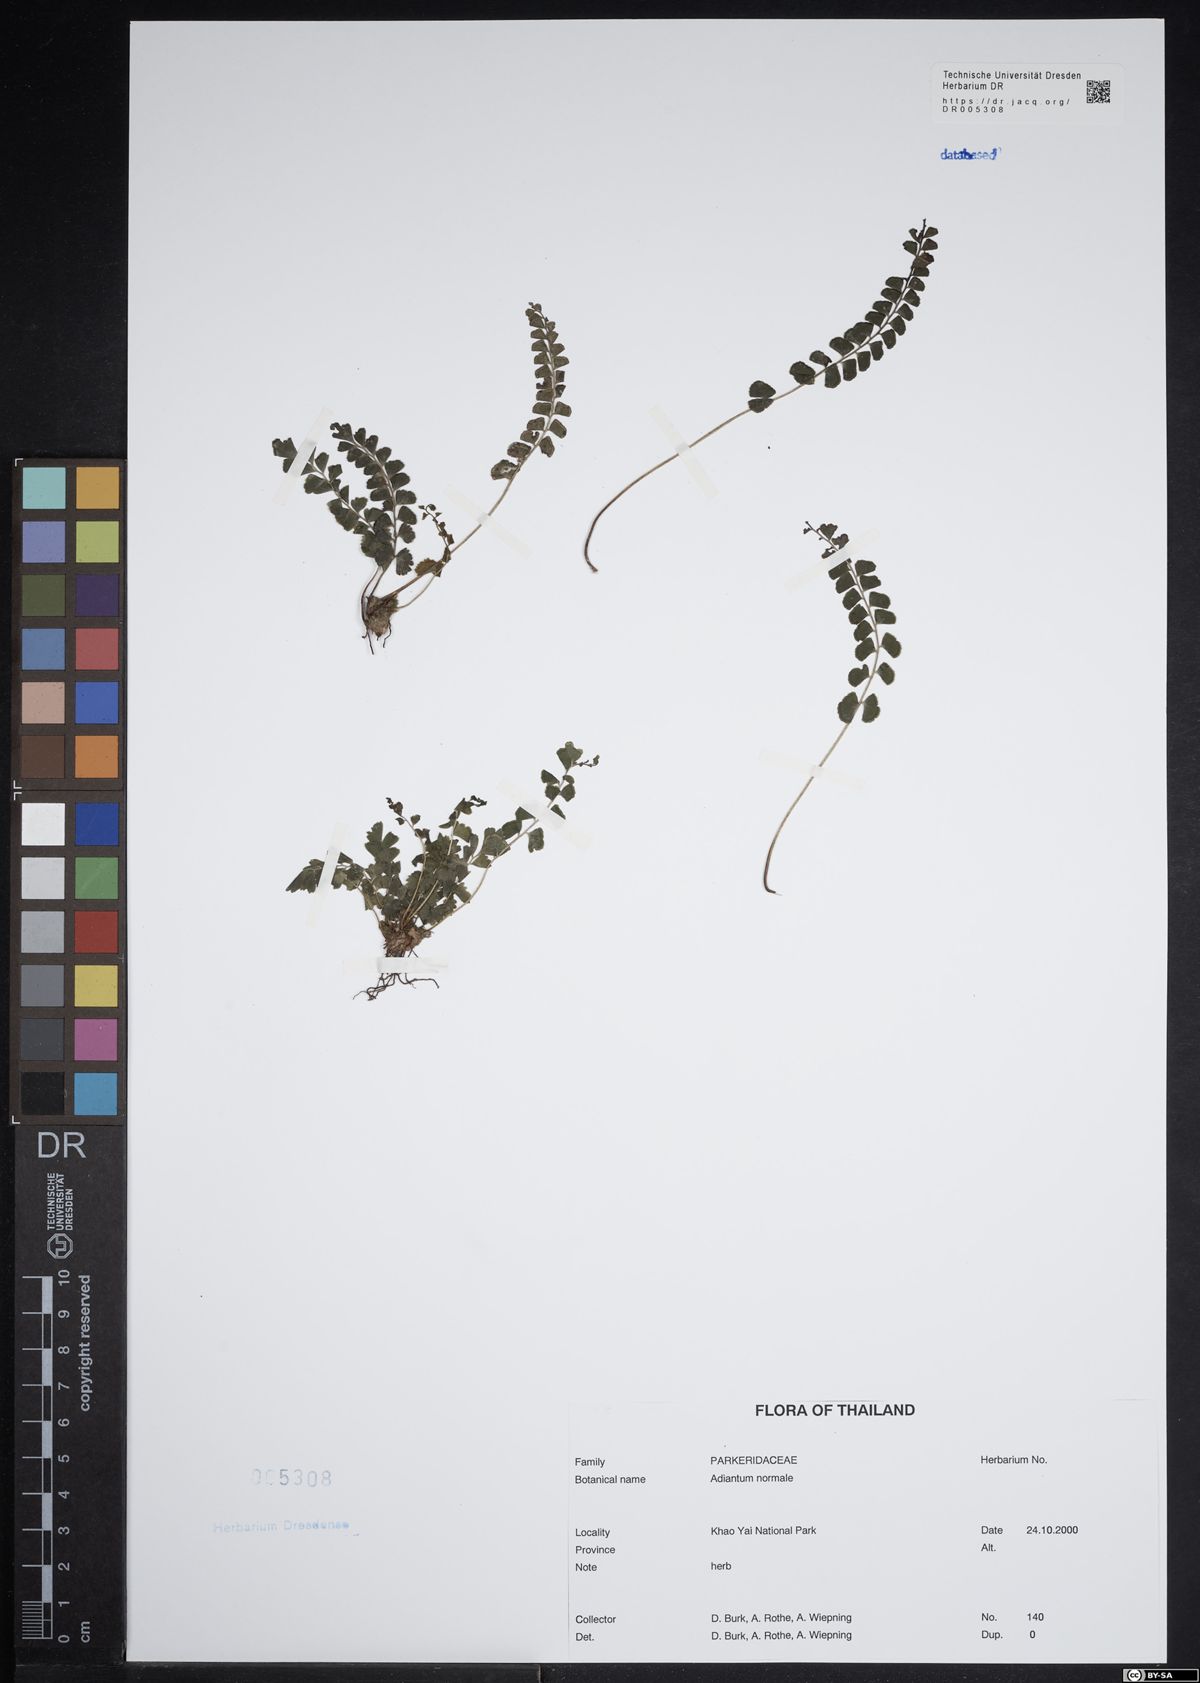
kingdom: Plantae
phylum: Tracheophyta
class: Polypodiopsida
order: Polypodiales
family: Pteridaceae
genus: Adiantum
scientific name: Adiantum
